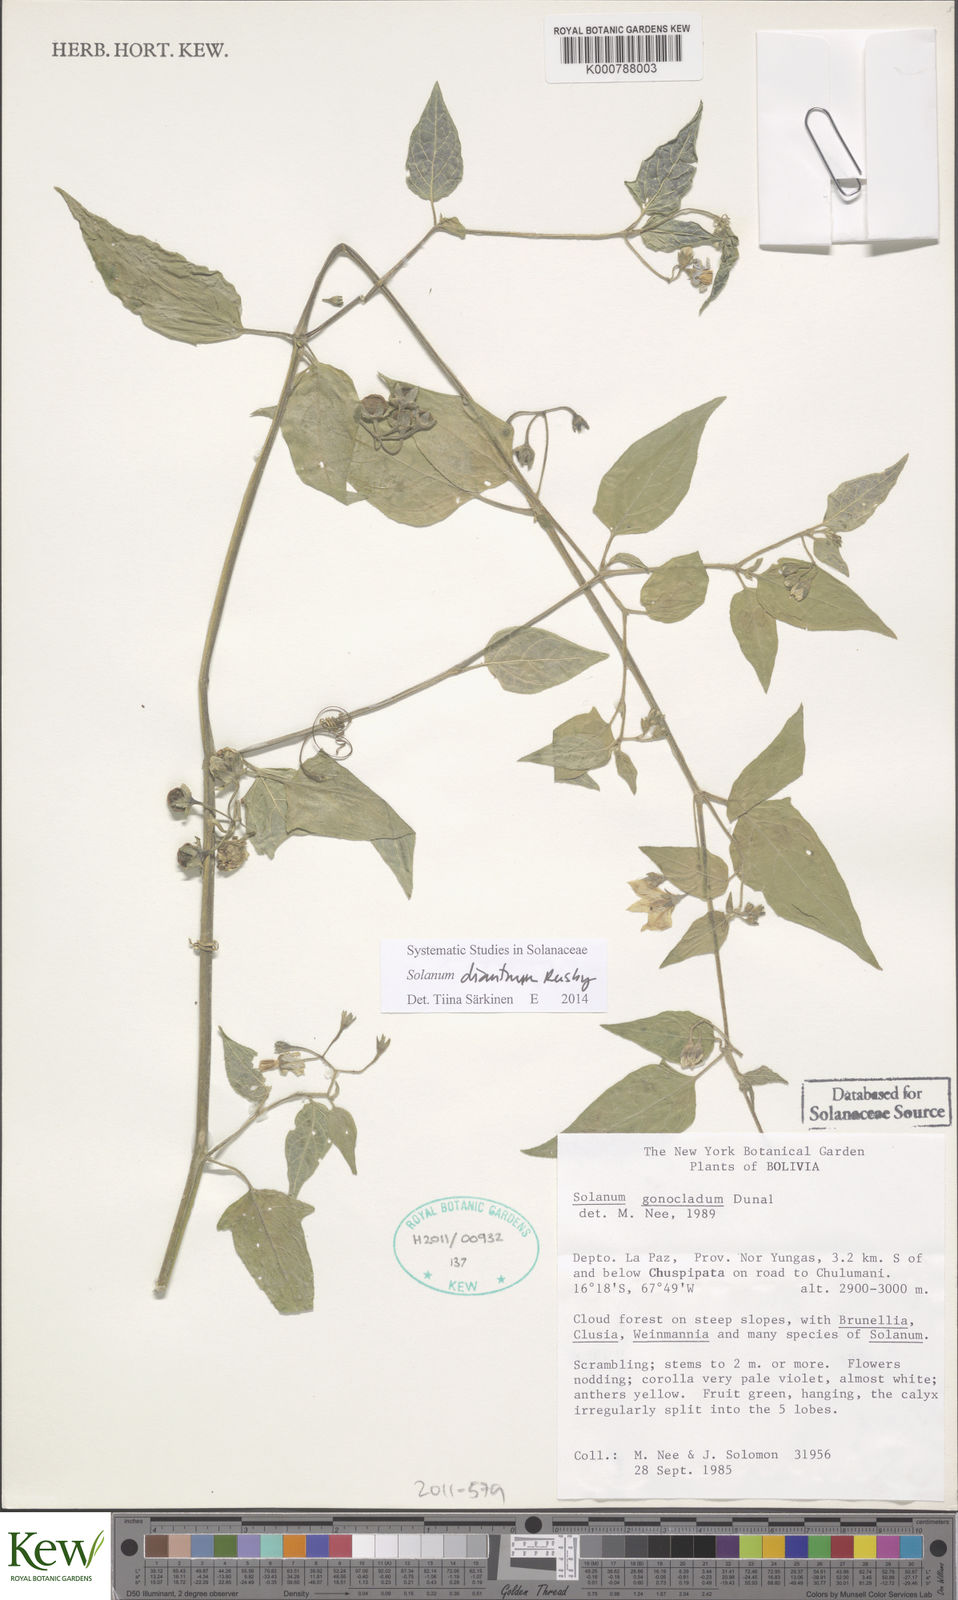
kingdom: Plantae
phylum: Tracheophyta
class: Magnoliopsida
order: Solanales
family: Solanaceae
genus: Solanum
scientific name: Solanum dianthum
